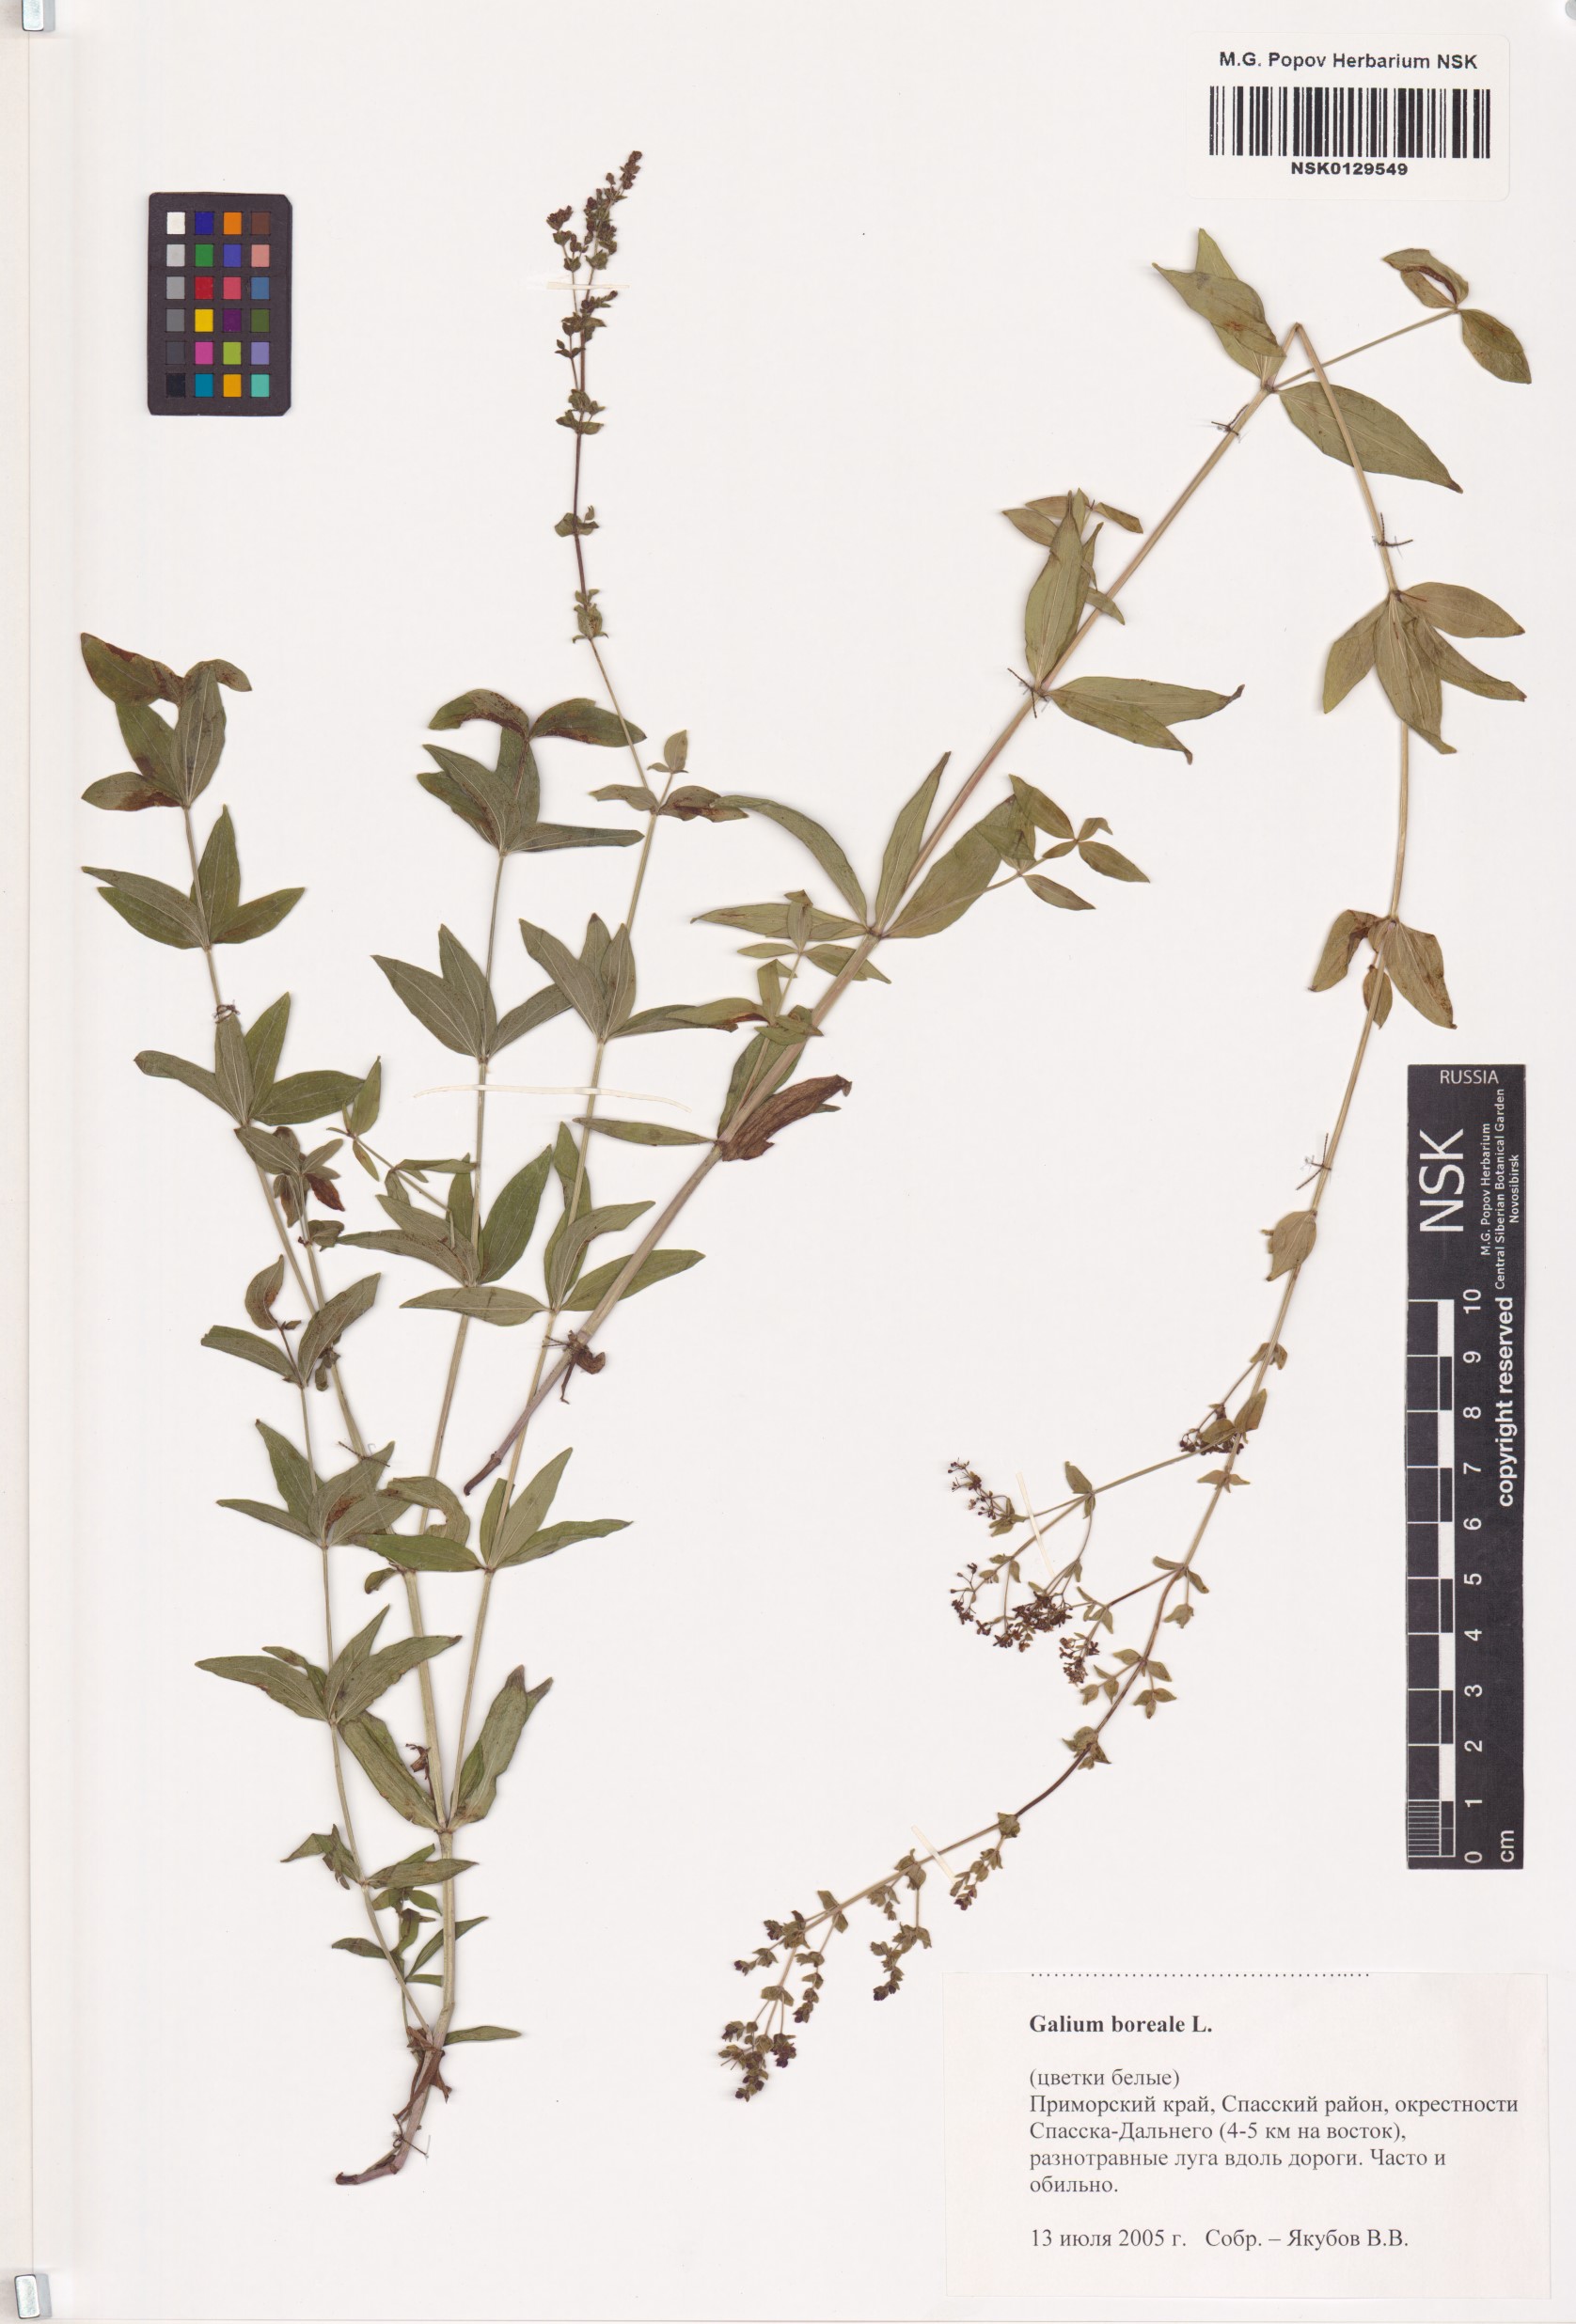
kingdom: Plantae
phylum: Tracheophyta
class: Magnoliopsida
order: Gentianales
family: Rubiaceae
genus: Galium
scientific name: Galium boreale
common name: Northern bedstraw
